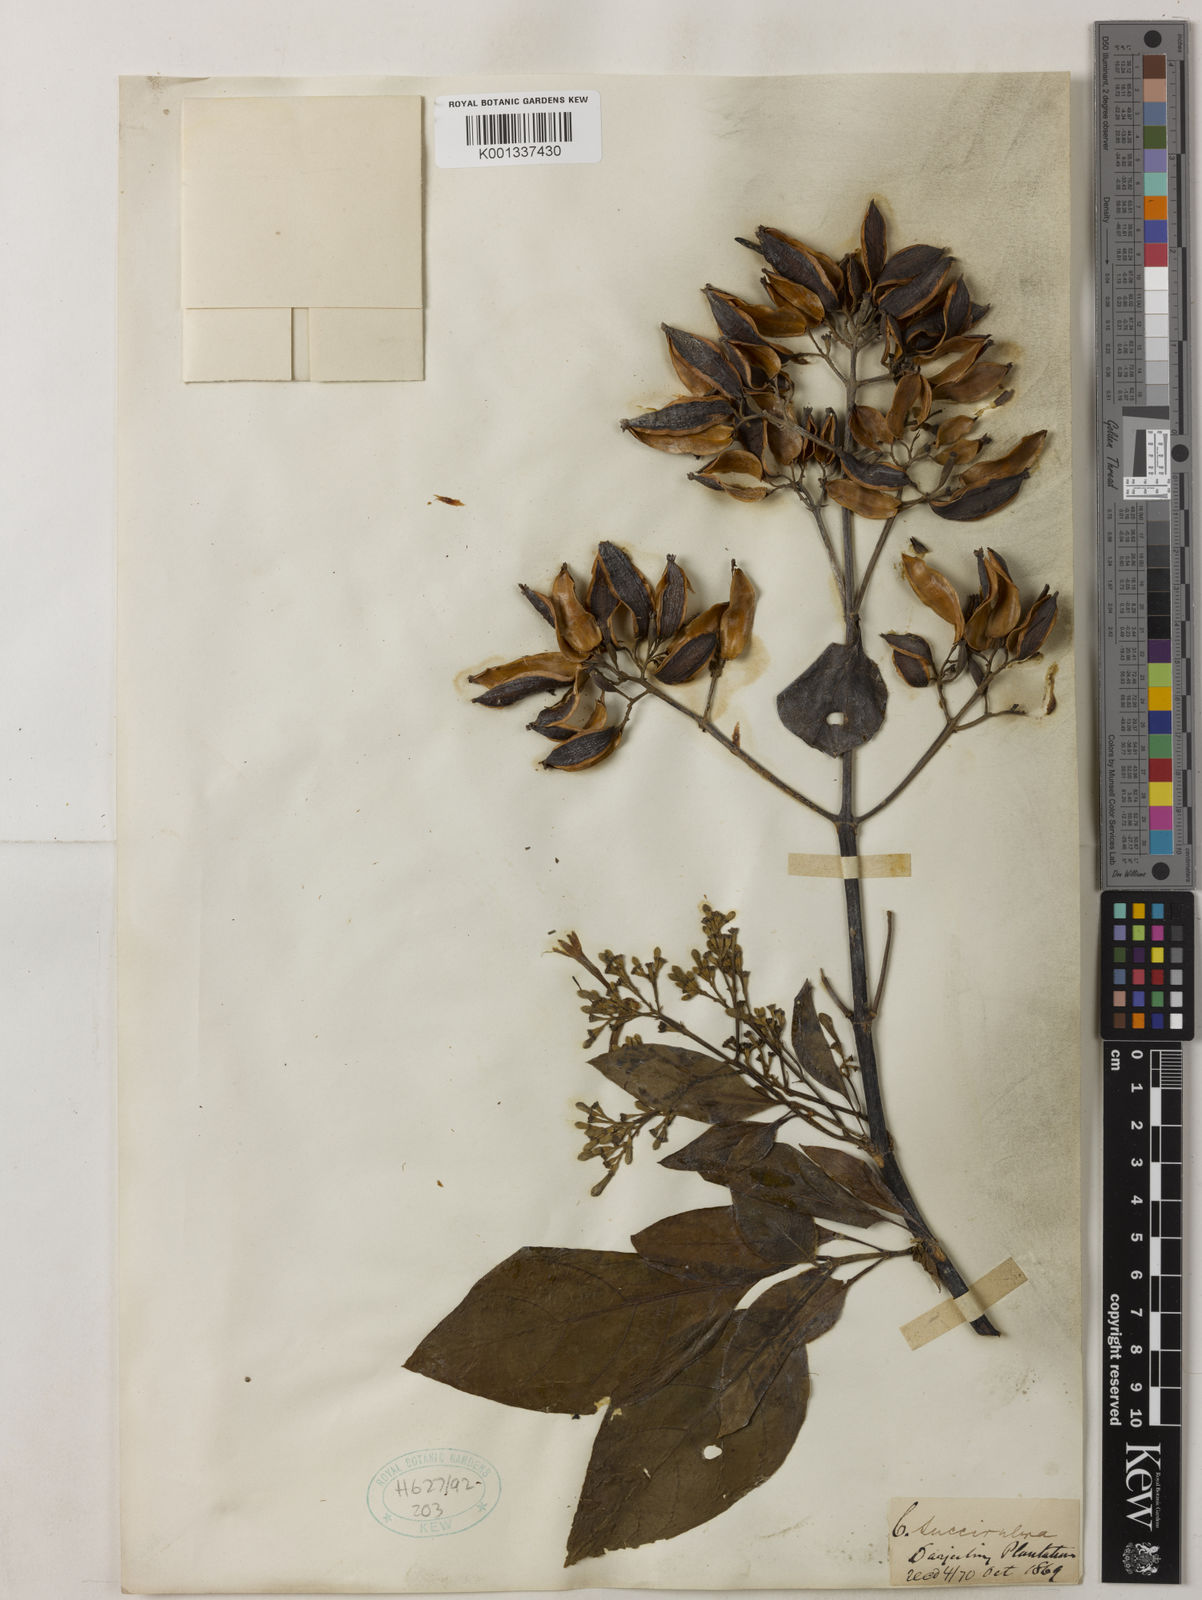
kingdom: Plantae
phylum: Tracheophyta
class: Magnoliopsida
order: Gentianales
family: Rubiaceae
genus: Cinchona
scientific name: Cinchona pubescens
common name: Quinine
